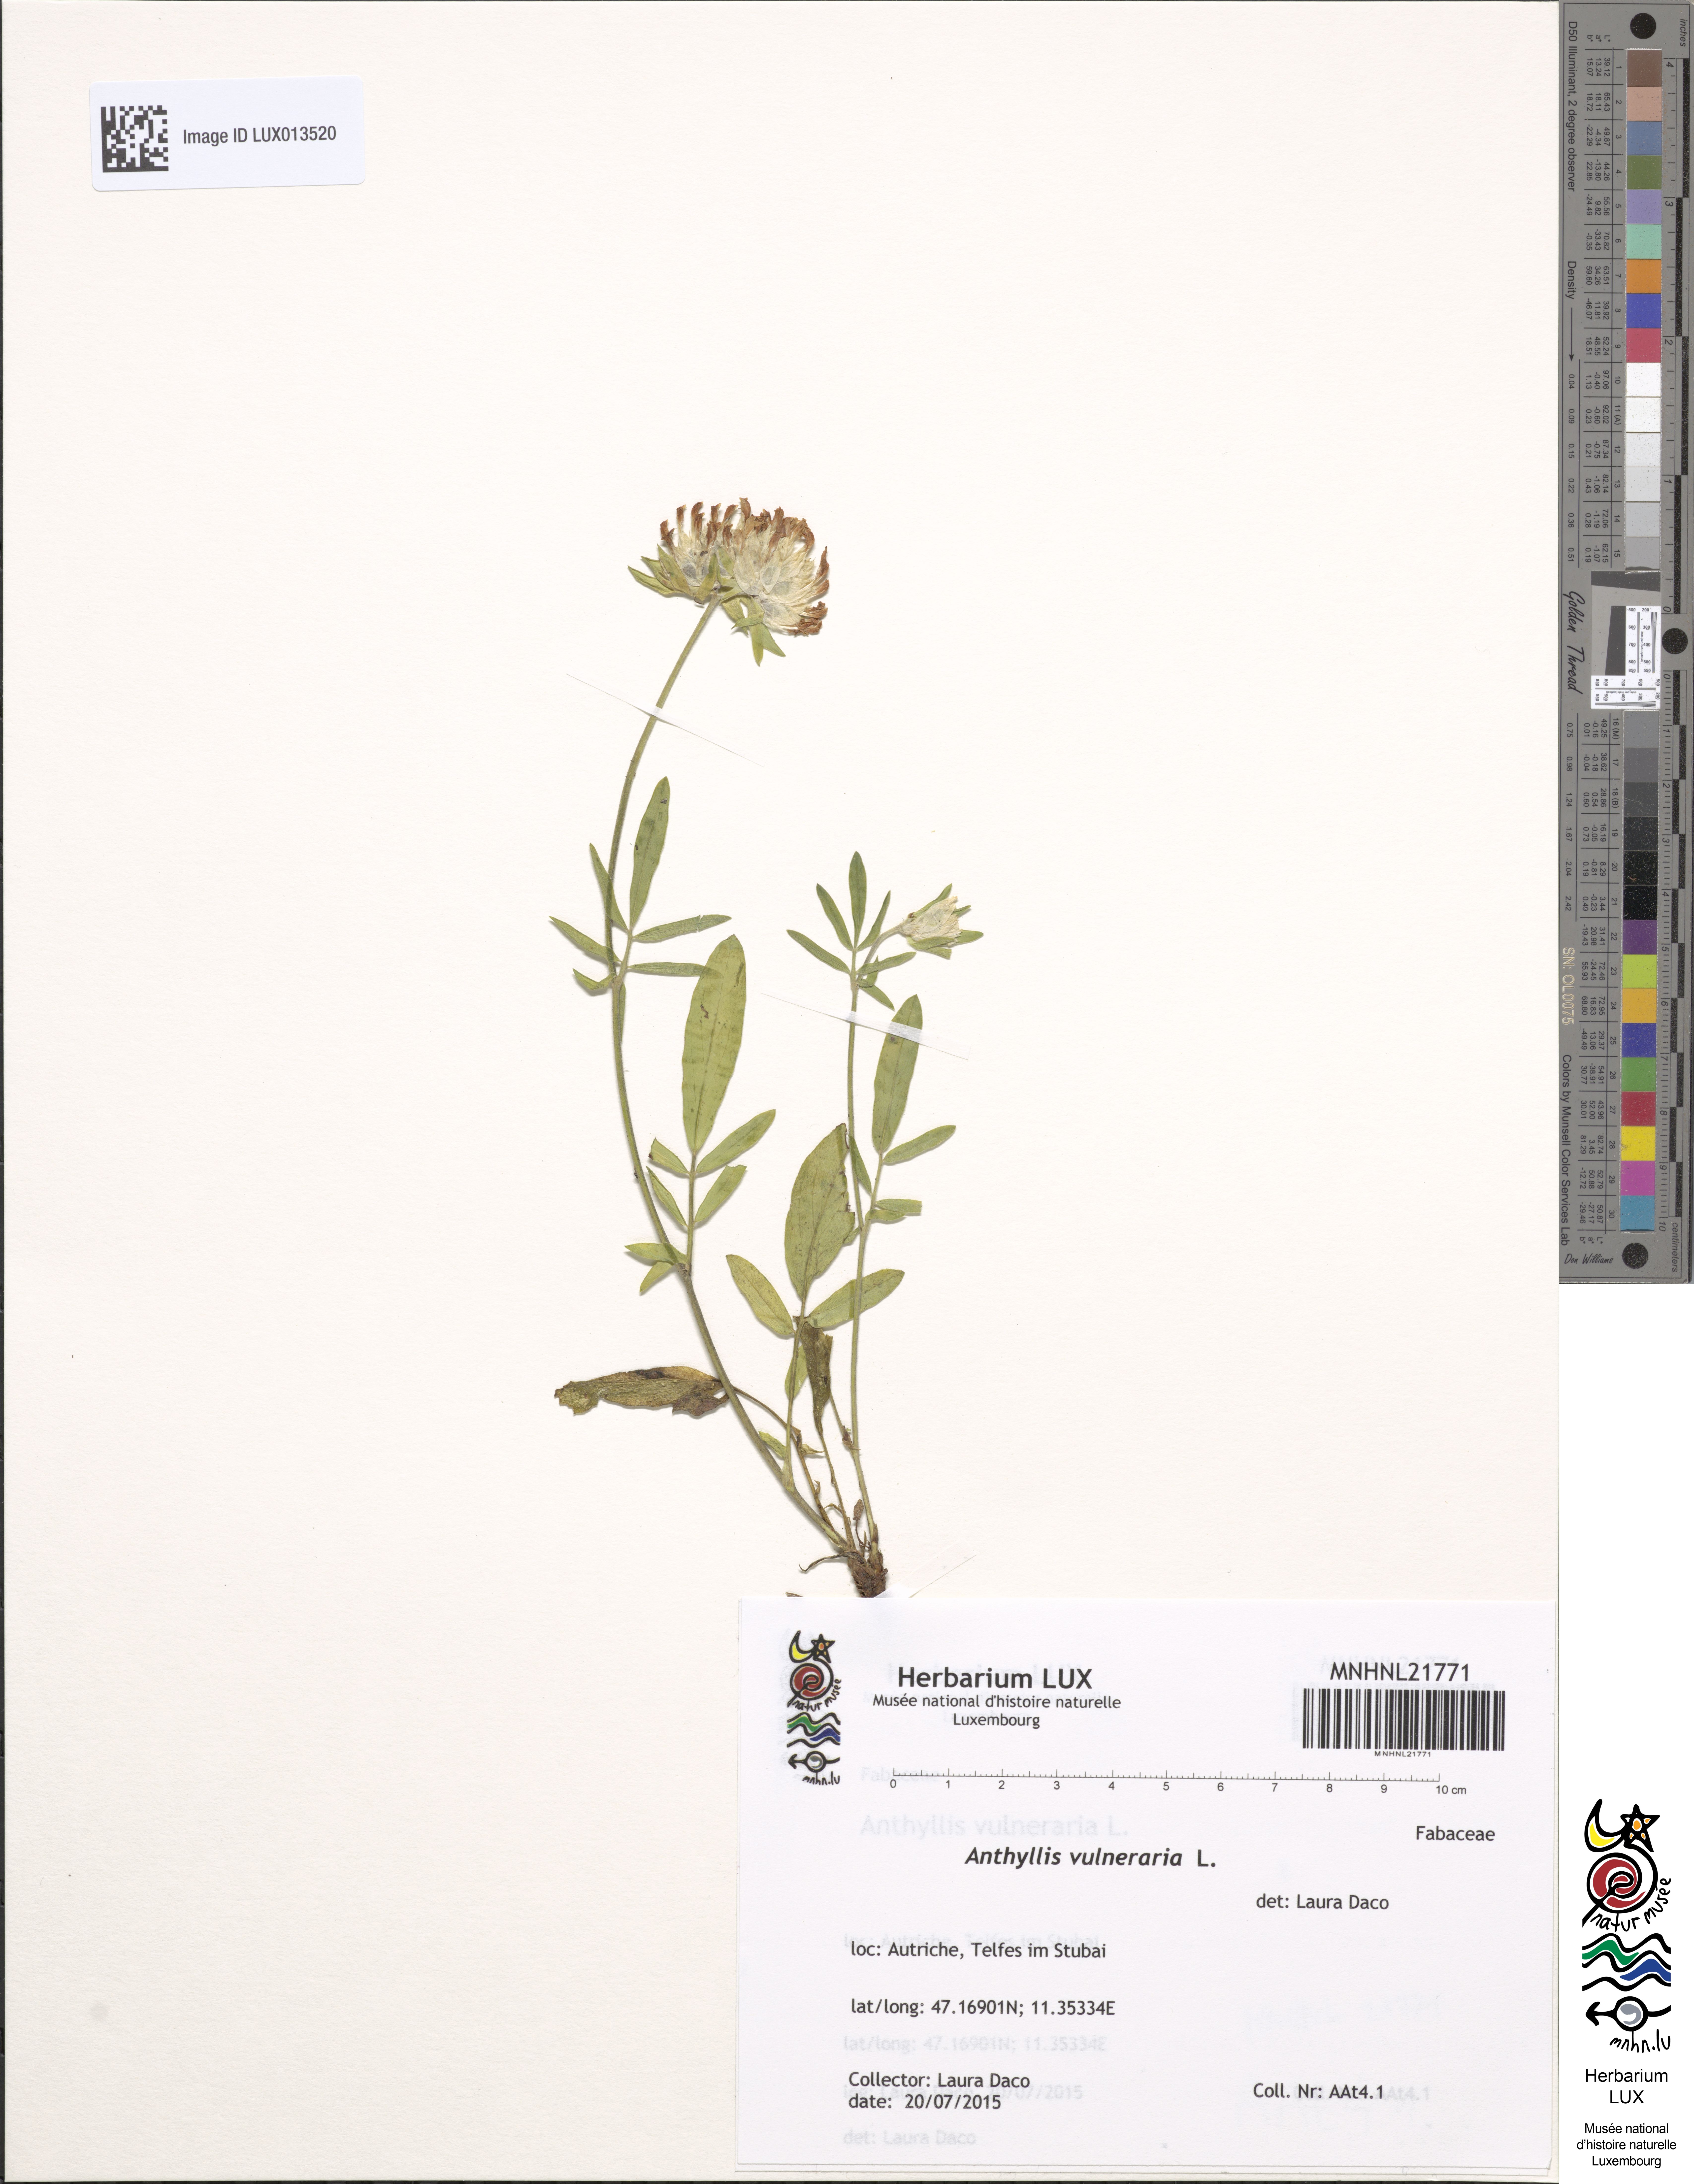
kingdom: Plantae
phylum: Tracheophyta
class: Magnoliopsida
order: Fabales
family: Fabaceae
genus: Anthyllis
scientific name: Anthyllis vulneraria
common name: Kidney vetch
